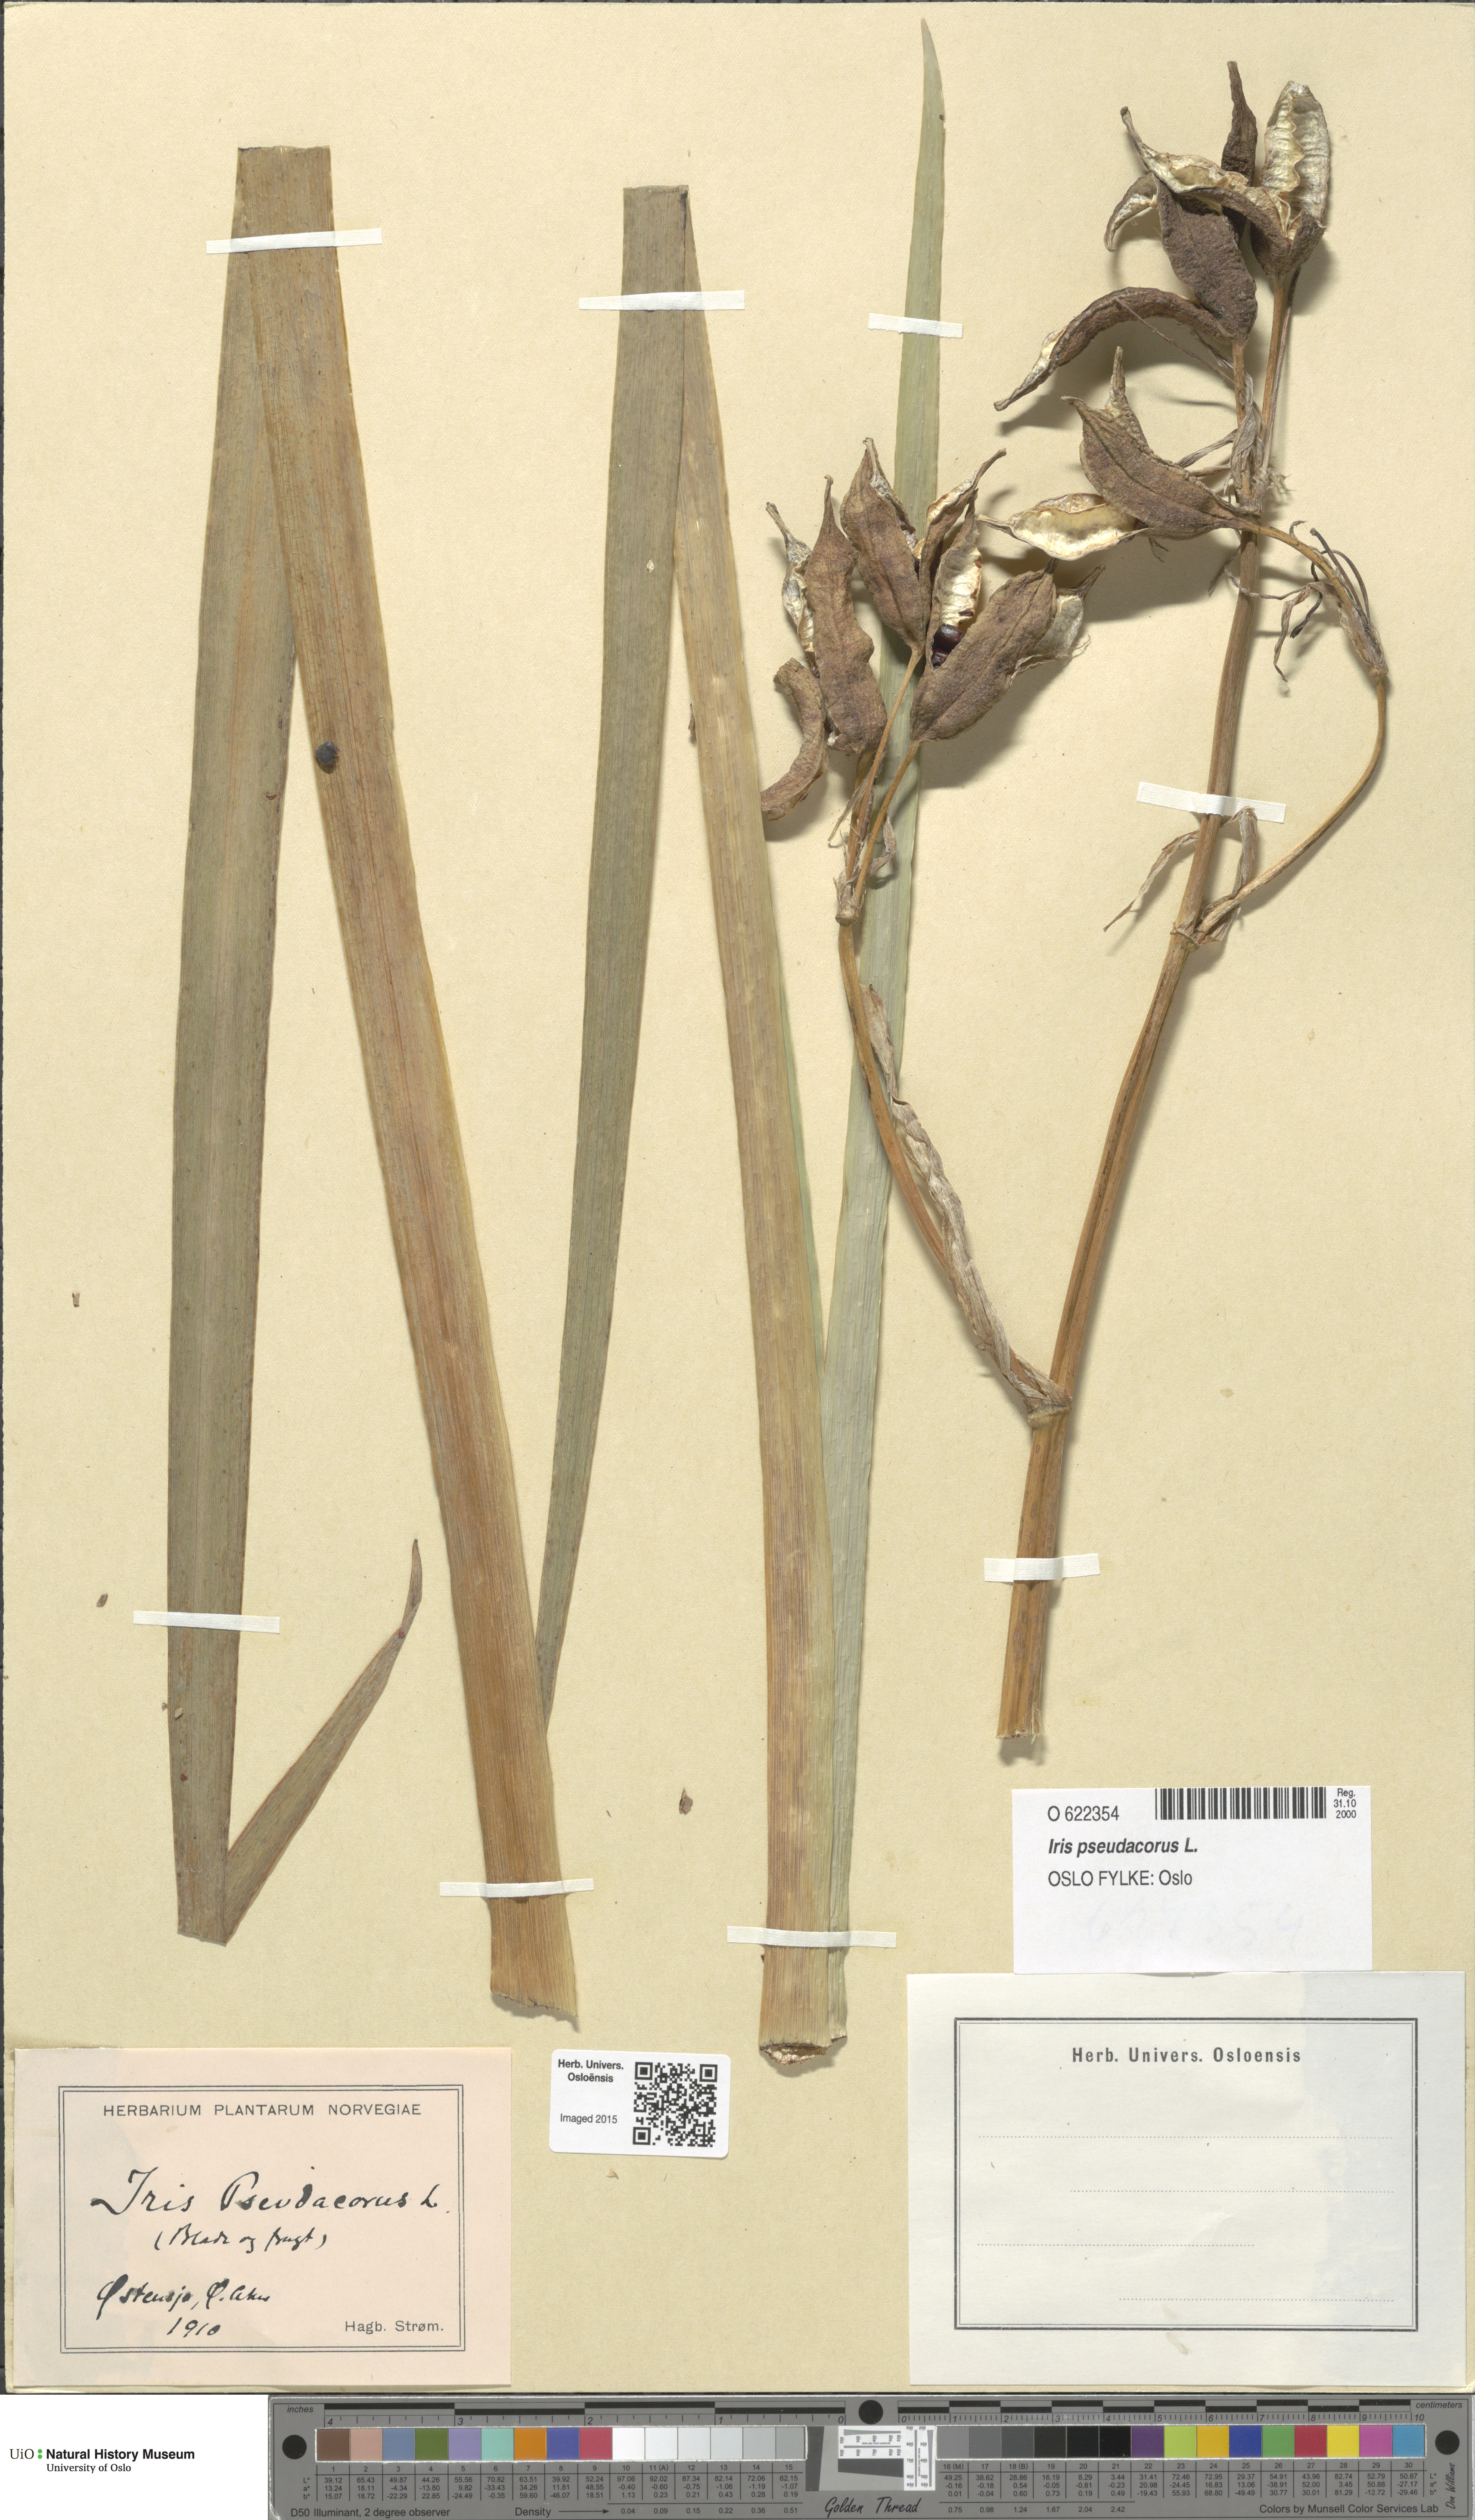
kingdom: Plantae
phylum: Tracheophyta
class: Liliopsida
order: Asparagales
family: Iridaceae
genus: Iris
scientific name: Iris pseudacorus
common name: Yellow flag
